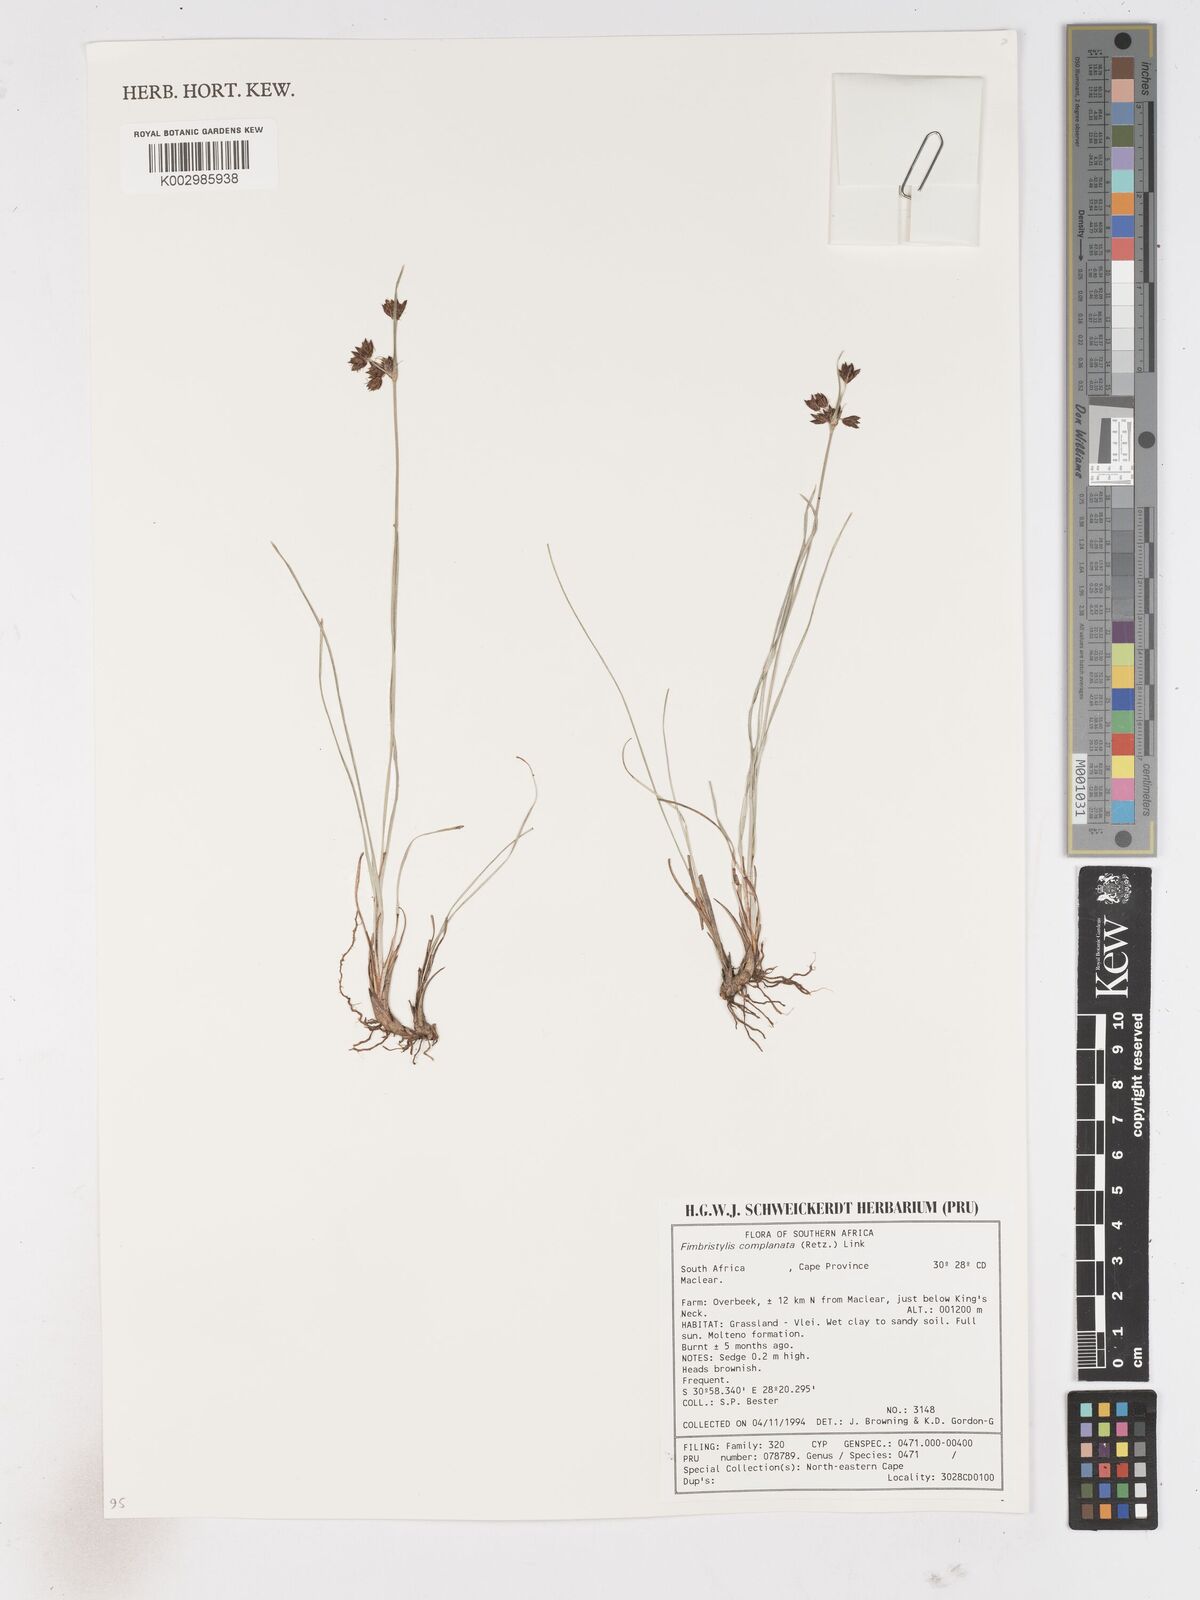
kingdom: Plantae
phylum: Tracheophyta
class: Liliopsida
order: Poales
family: Cyperaceae
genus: Fimbristylis
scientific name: Fimbristylis complanata
